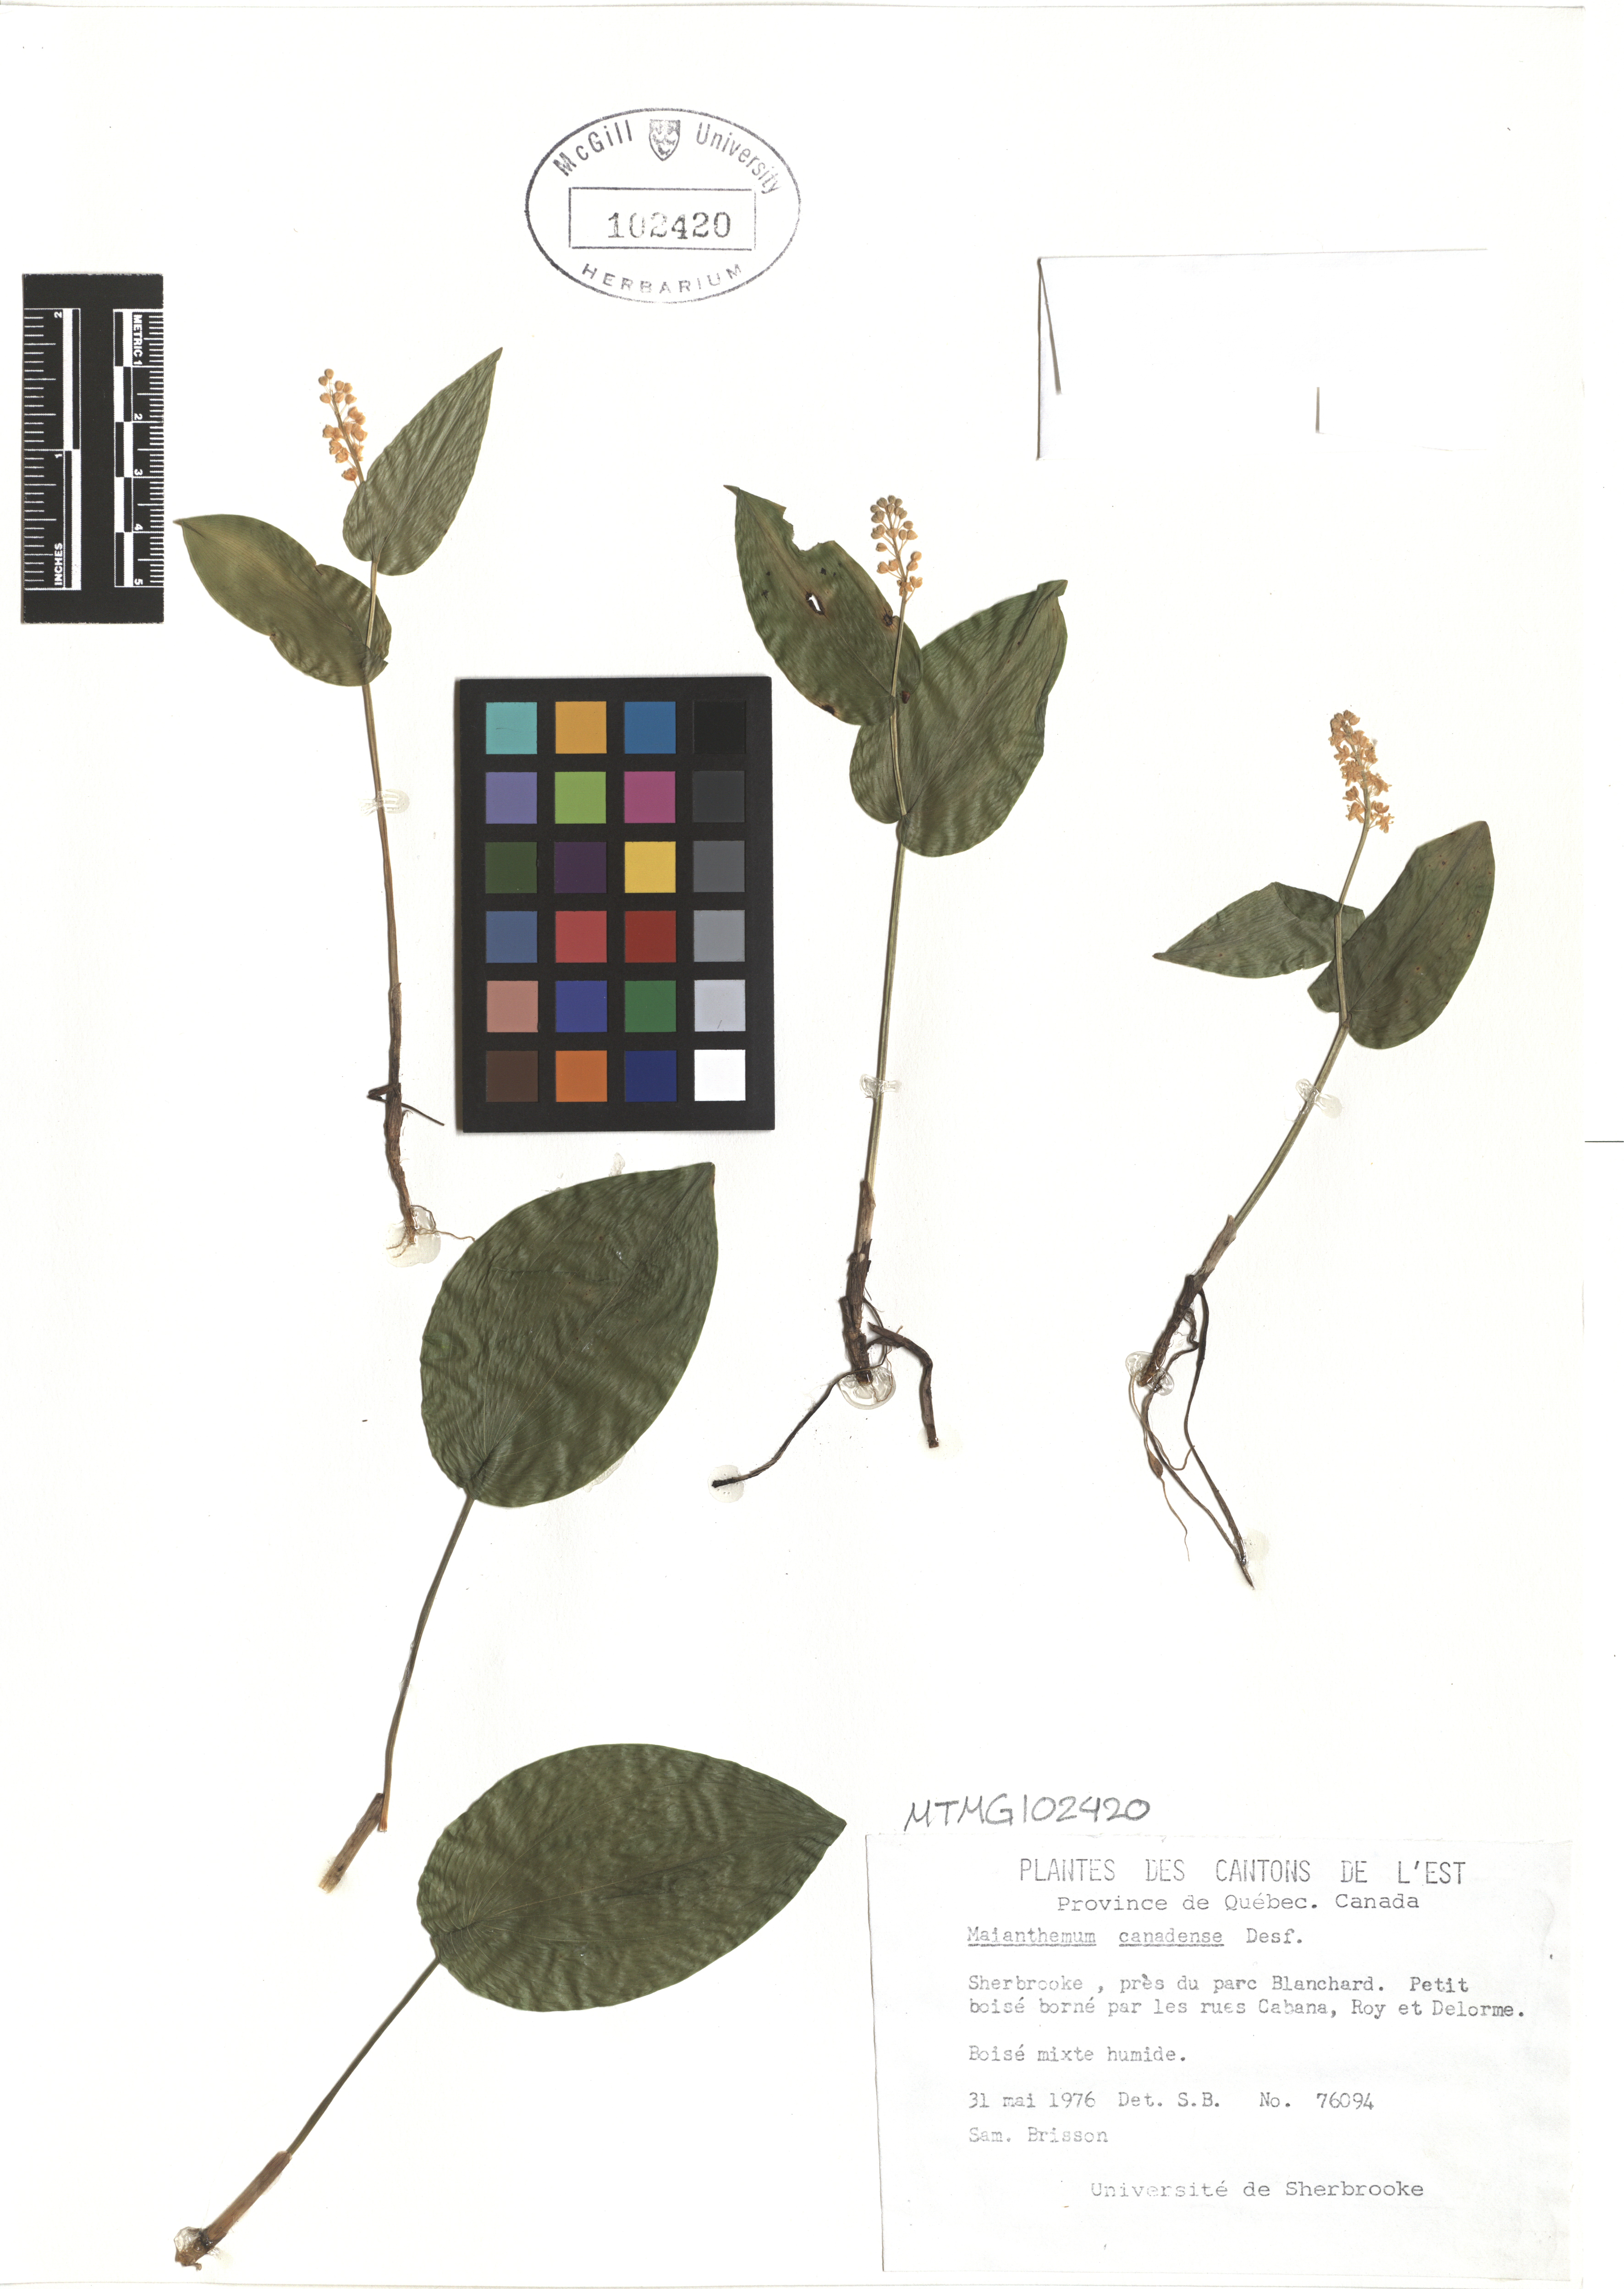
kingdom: Plantae
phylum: Tracheophyta
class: Liliopsida
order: Asparagales
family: Asparagaceae
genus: Maianthemum
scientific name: Maianthemum canadense
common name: False lily-of-the-valley
